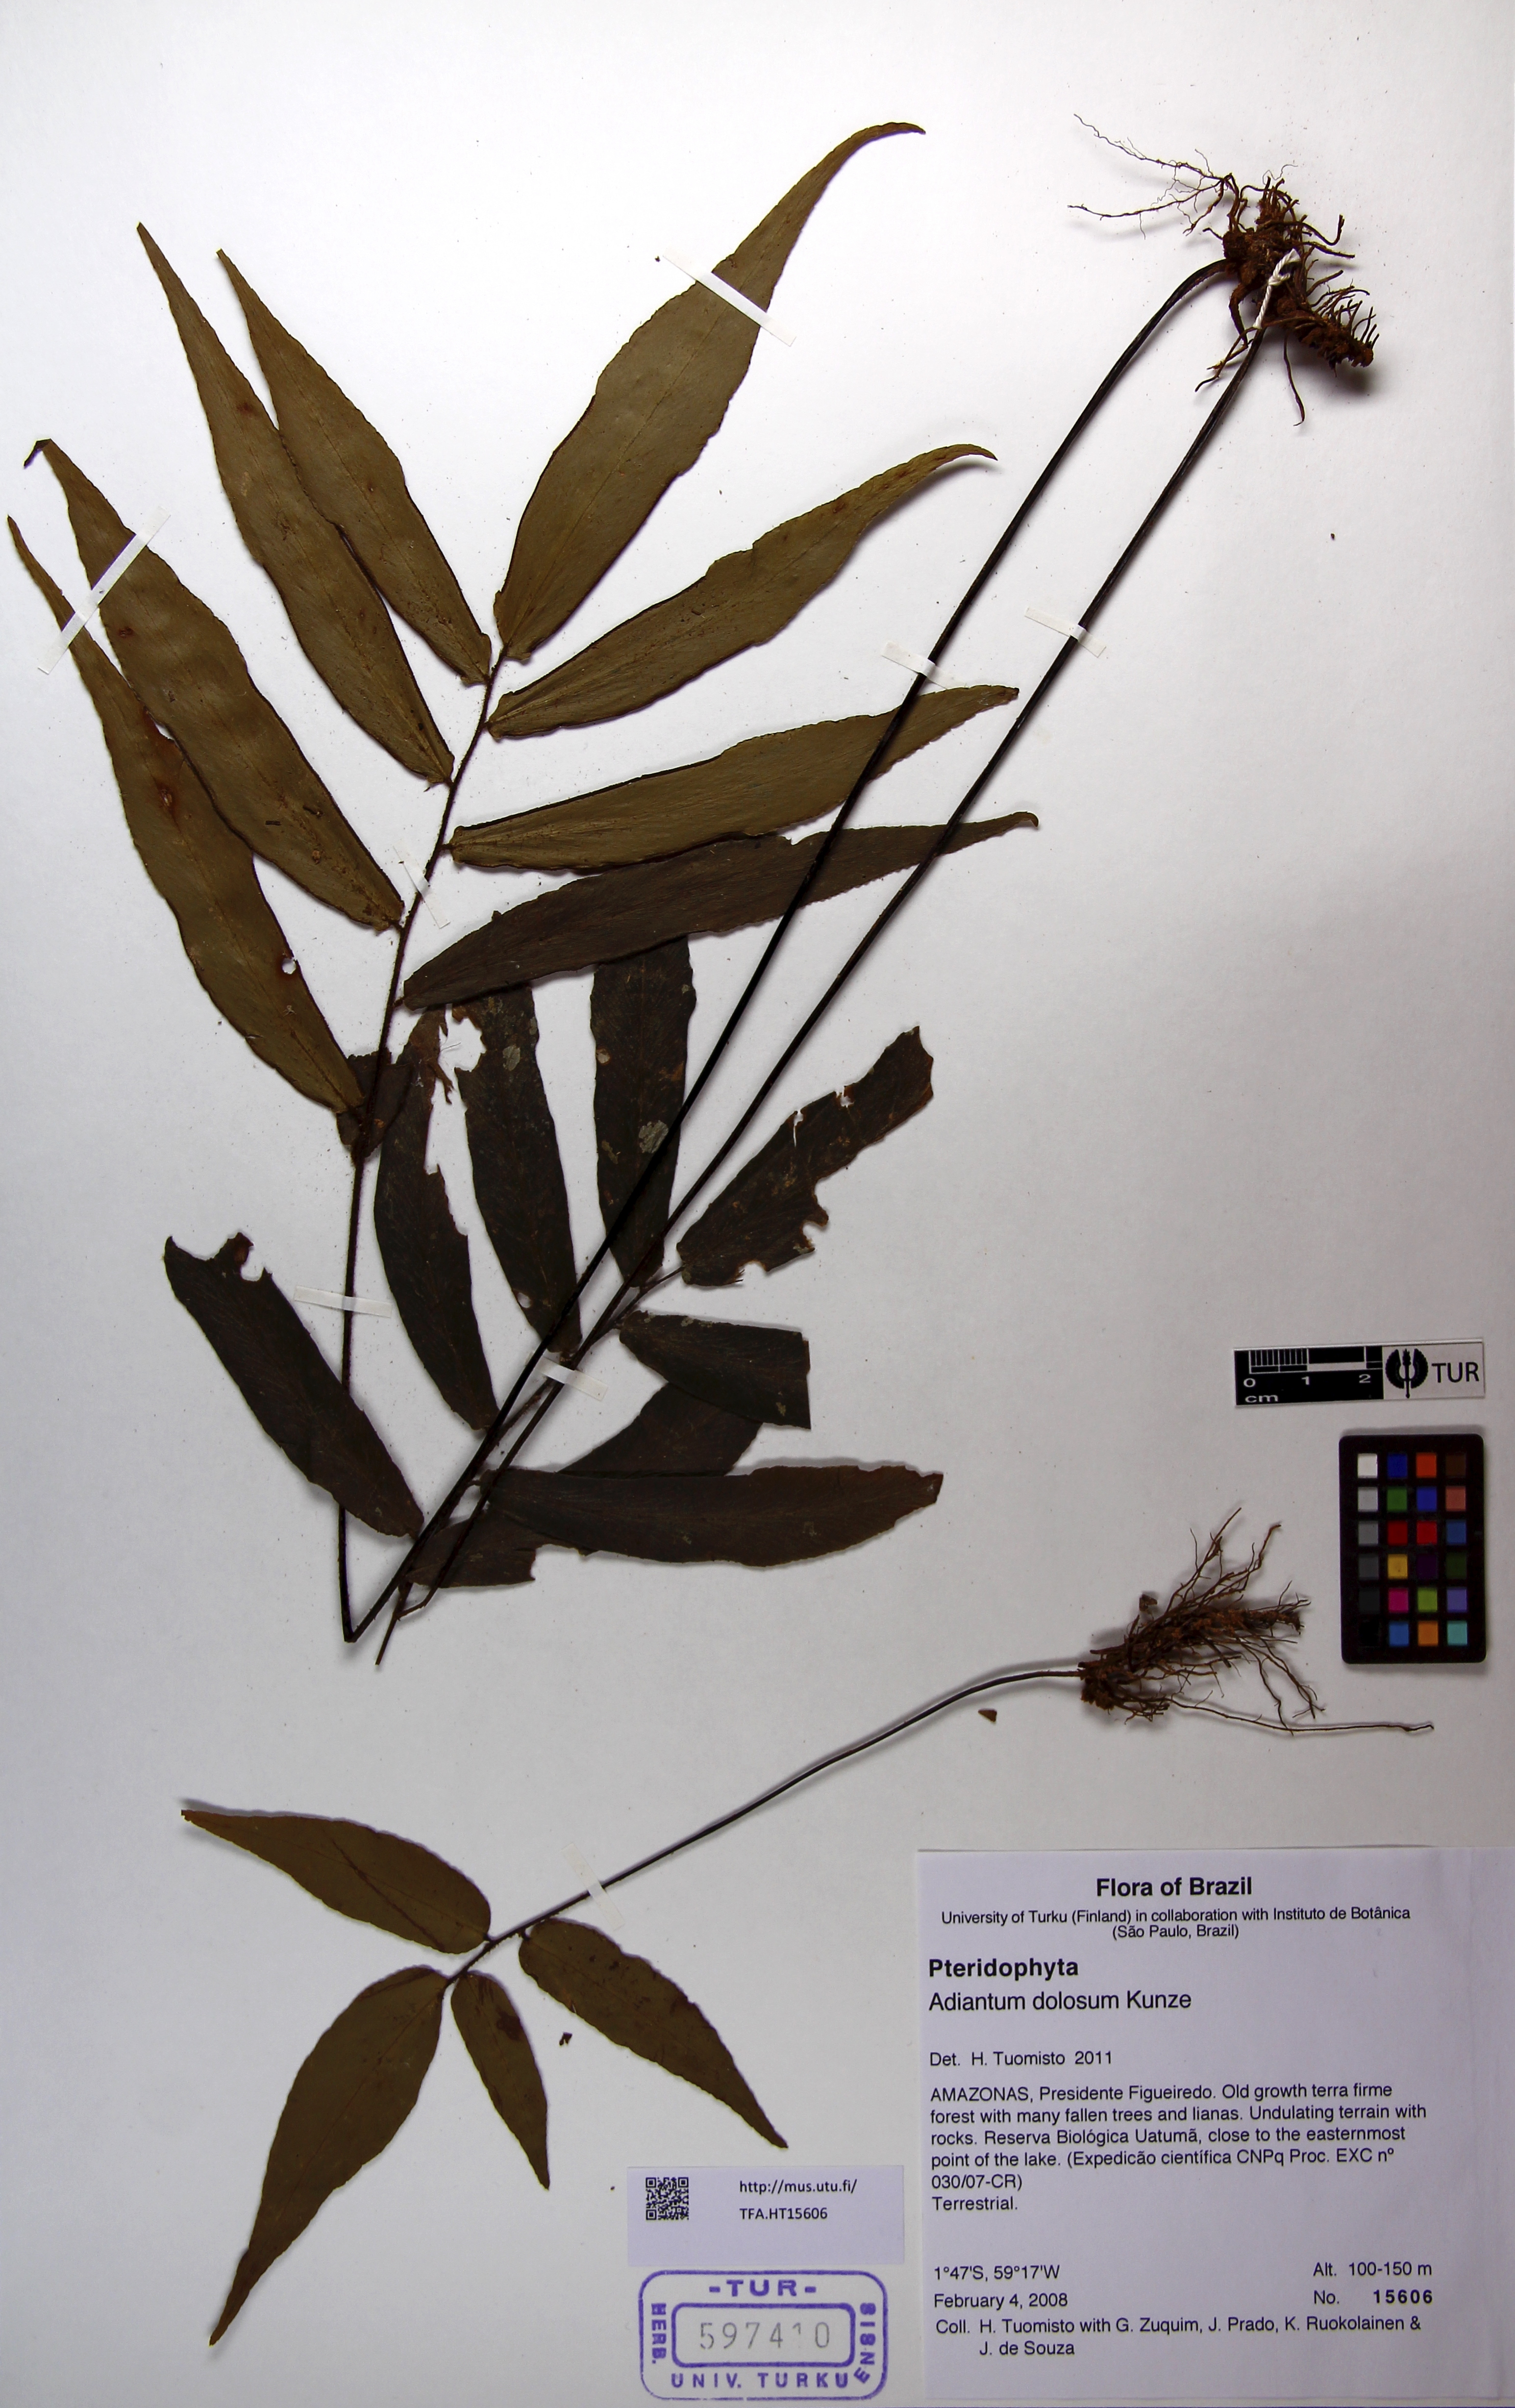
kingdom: Plantae
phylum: Tracheophyta
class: Polypodiopsida
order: Polypodiales
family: Pteridaceae
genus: Adiantum
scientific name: Adiantum dolosum
